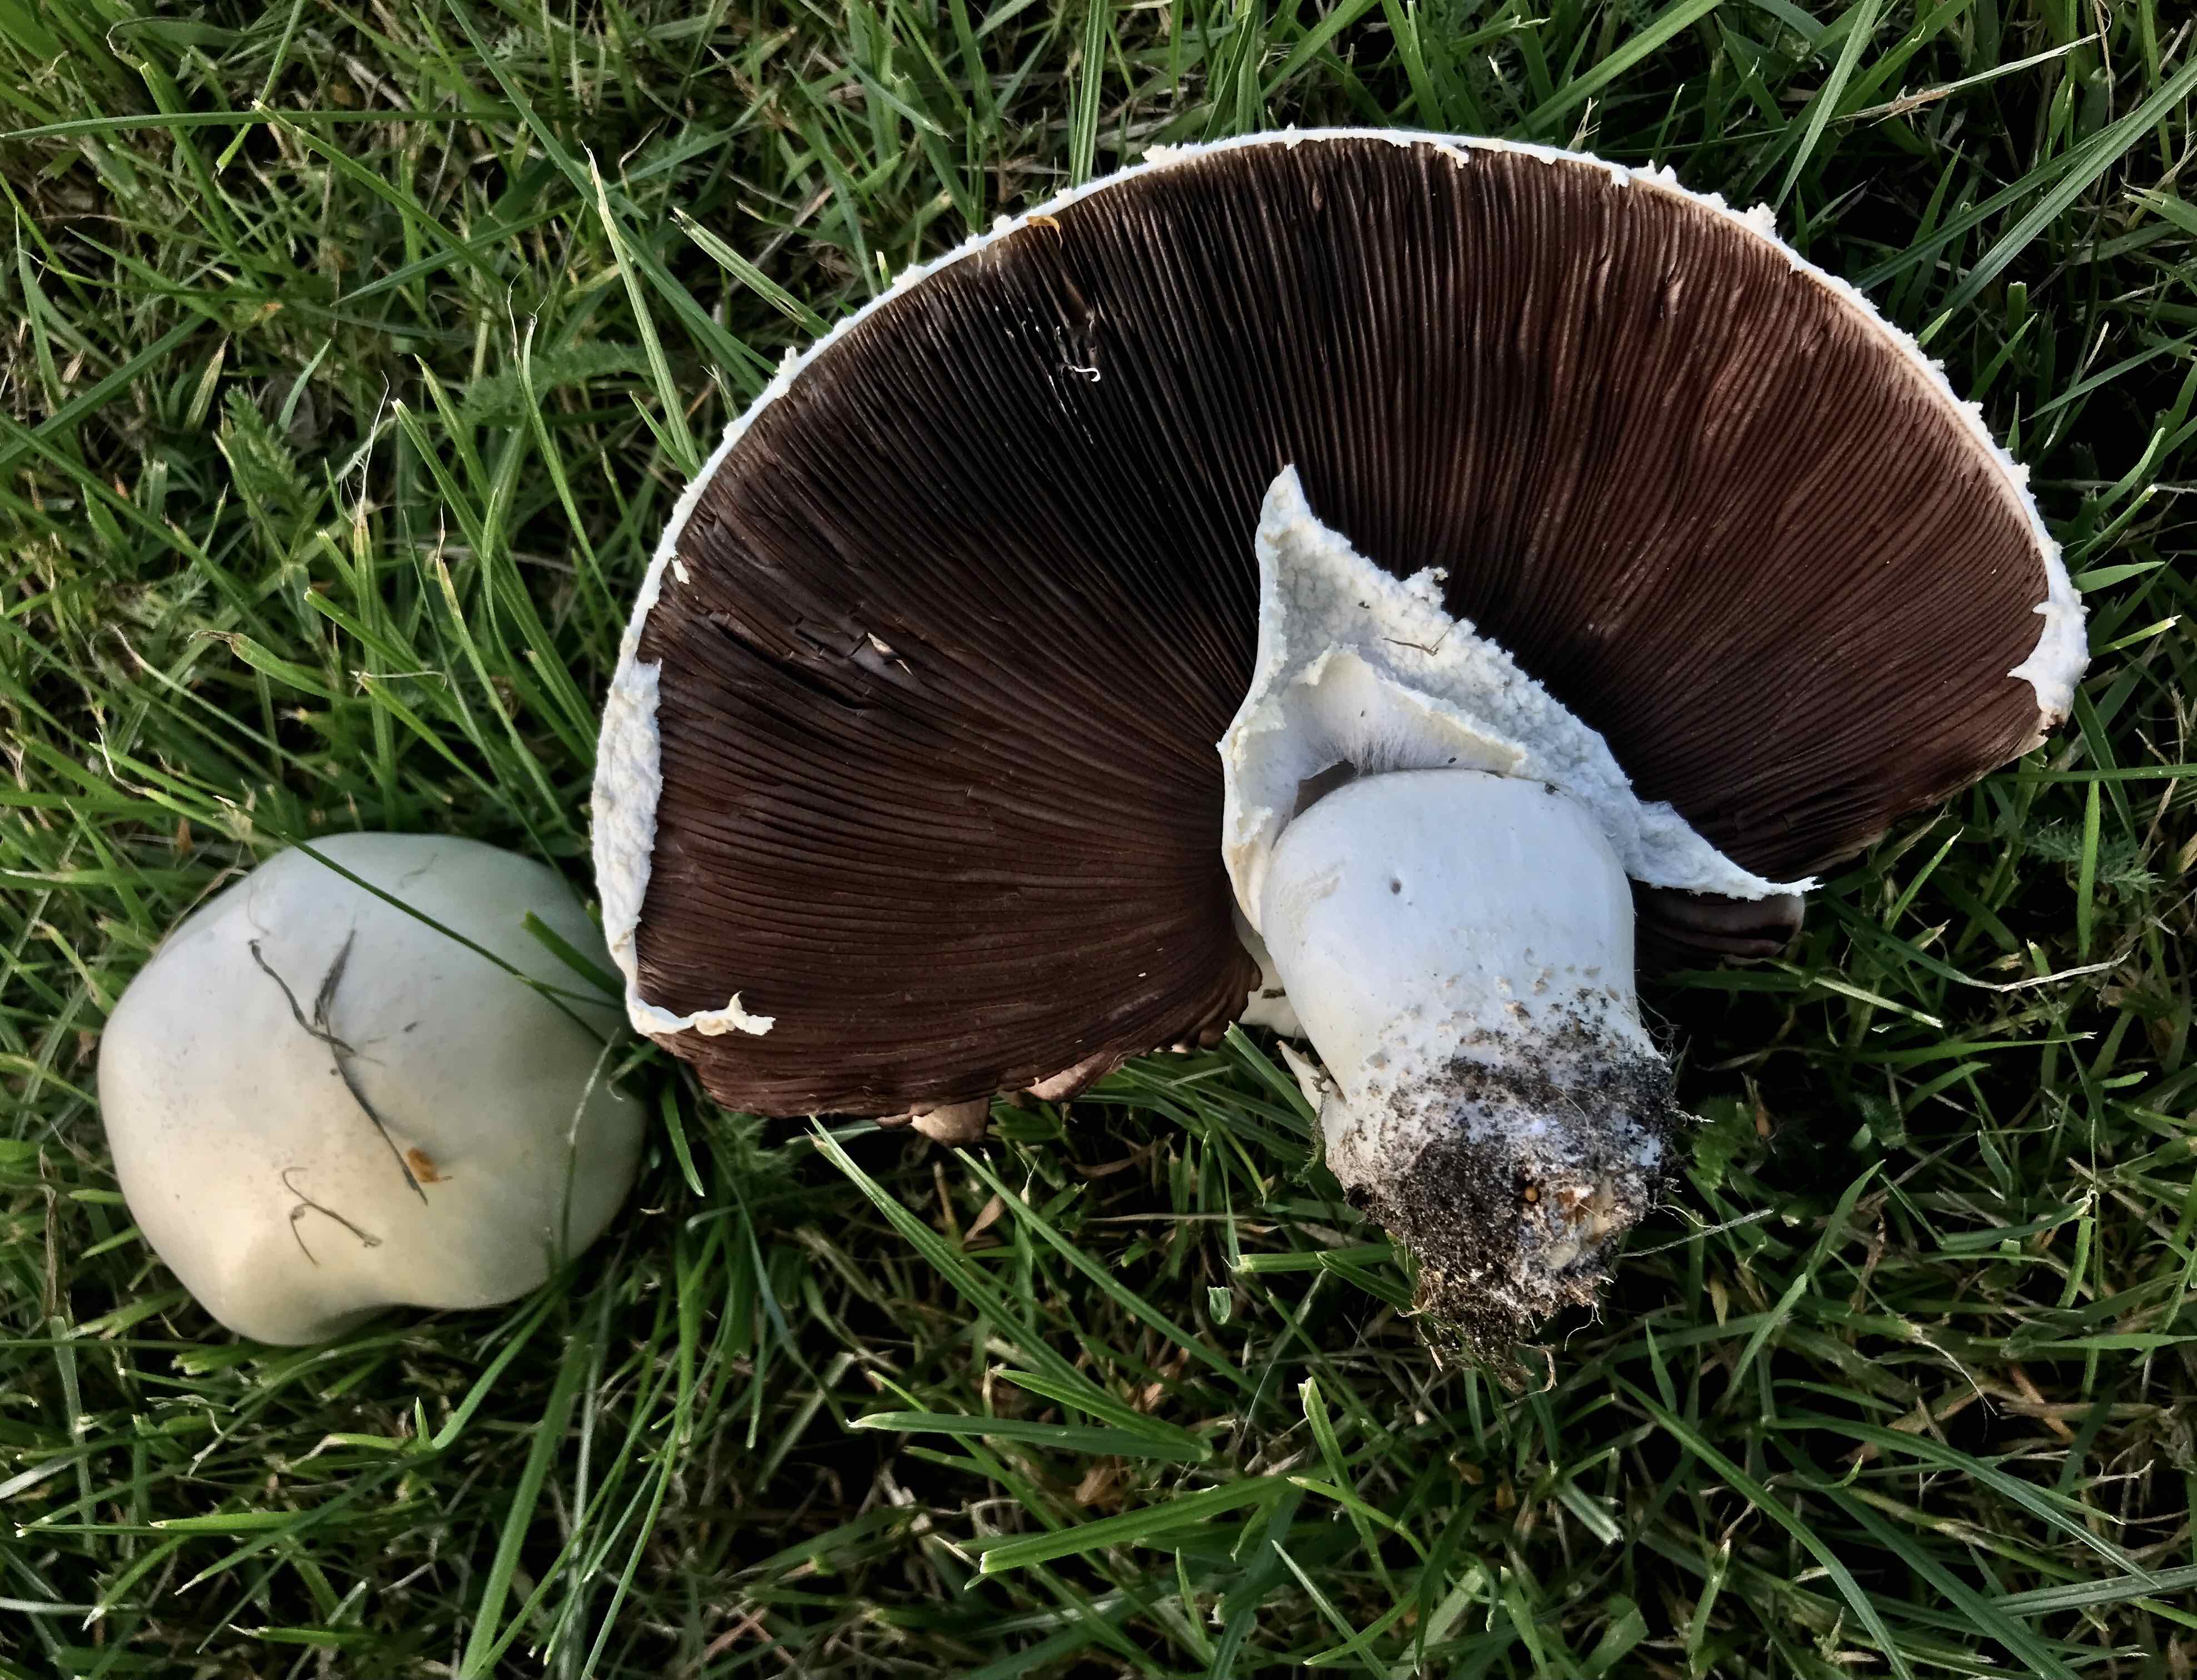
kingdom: Fungi
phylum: Basidiomycota
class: Agaricomycetes
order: Agaricales
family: Agaricaceae
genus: Agaricus
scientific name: Agaricus arvensis
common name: ager-champignon
